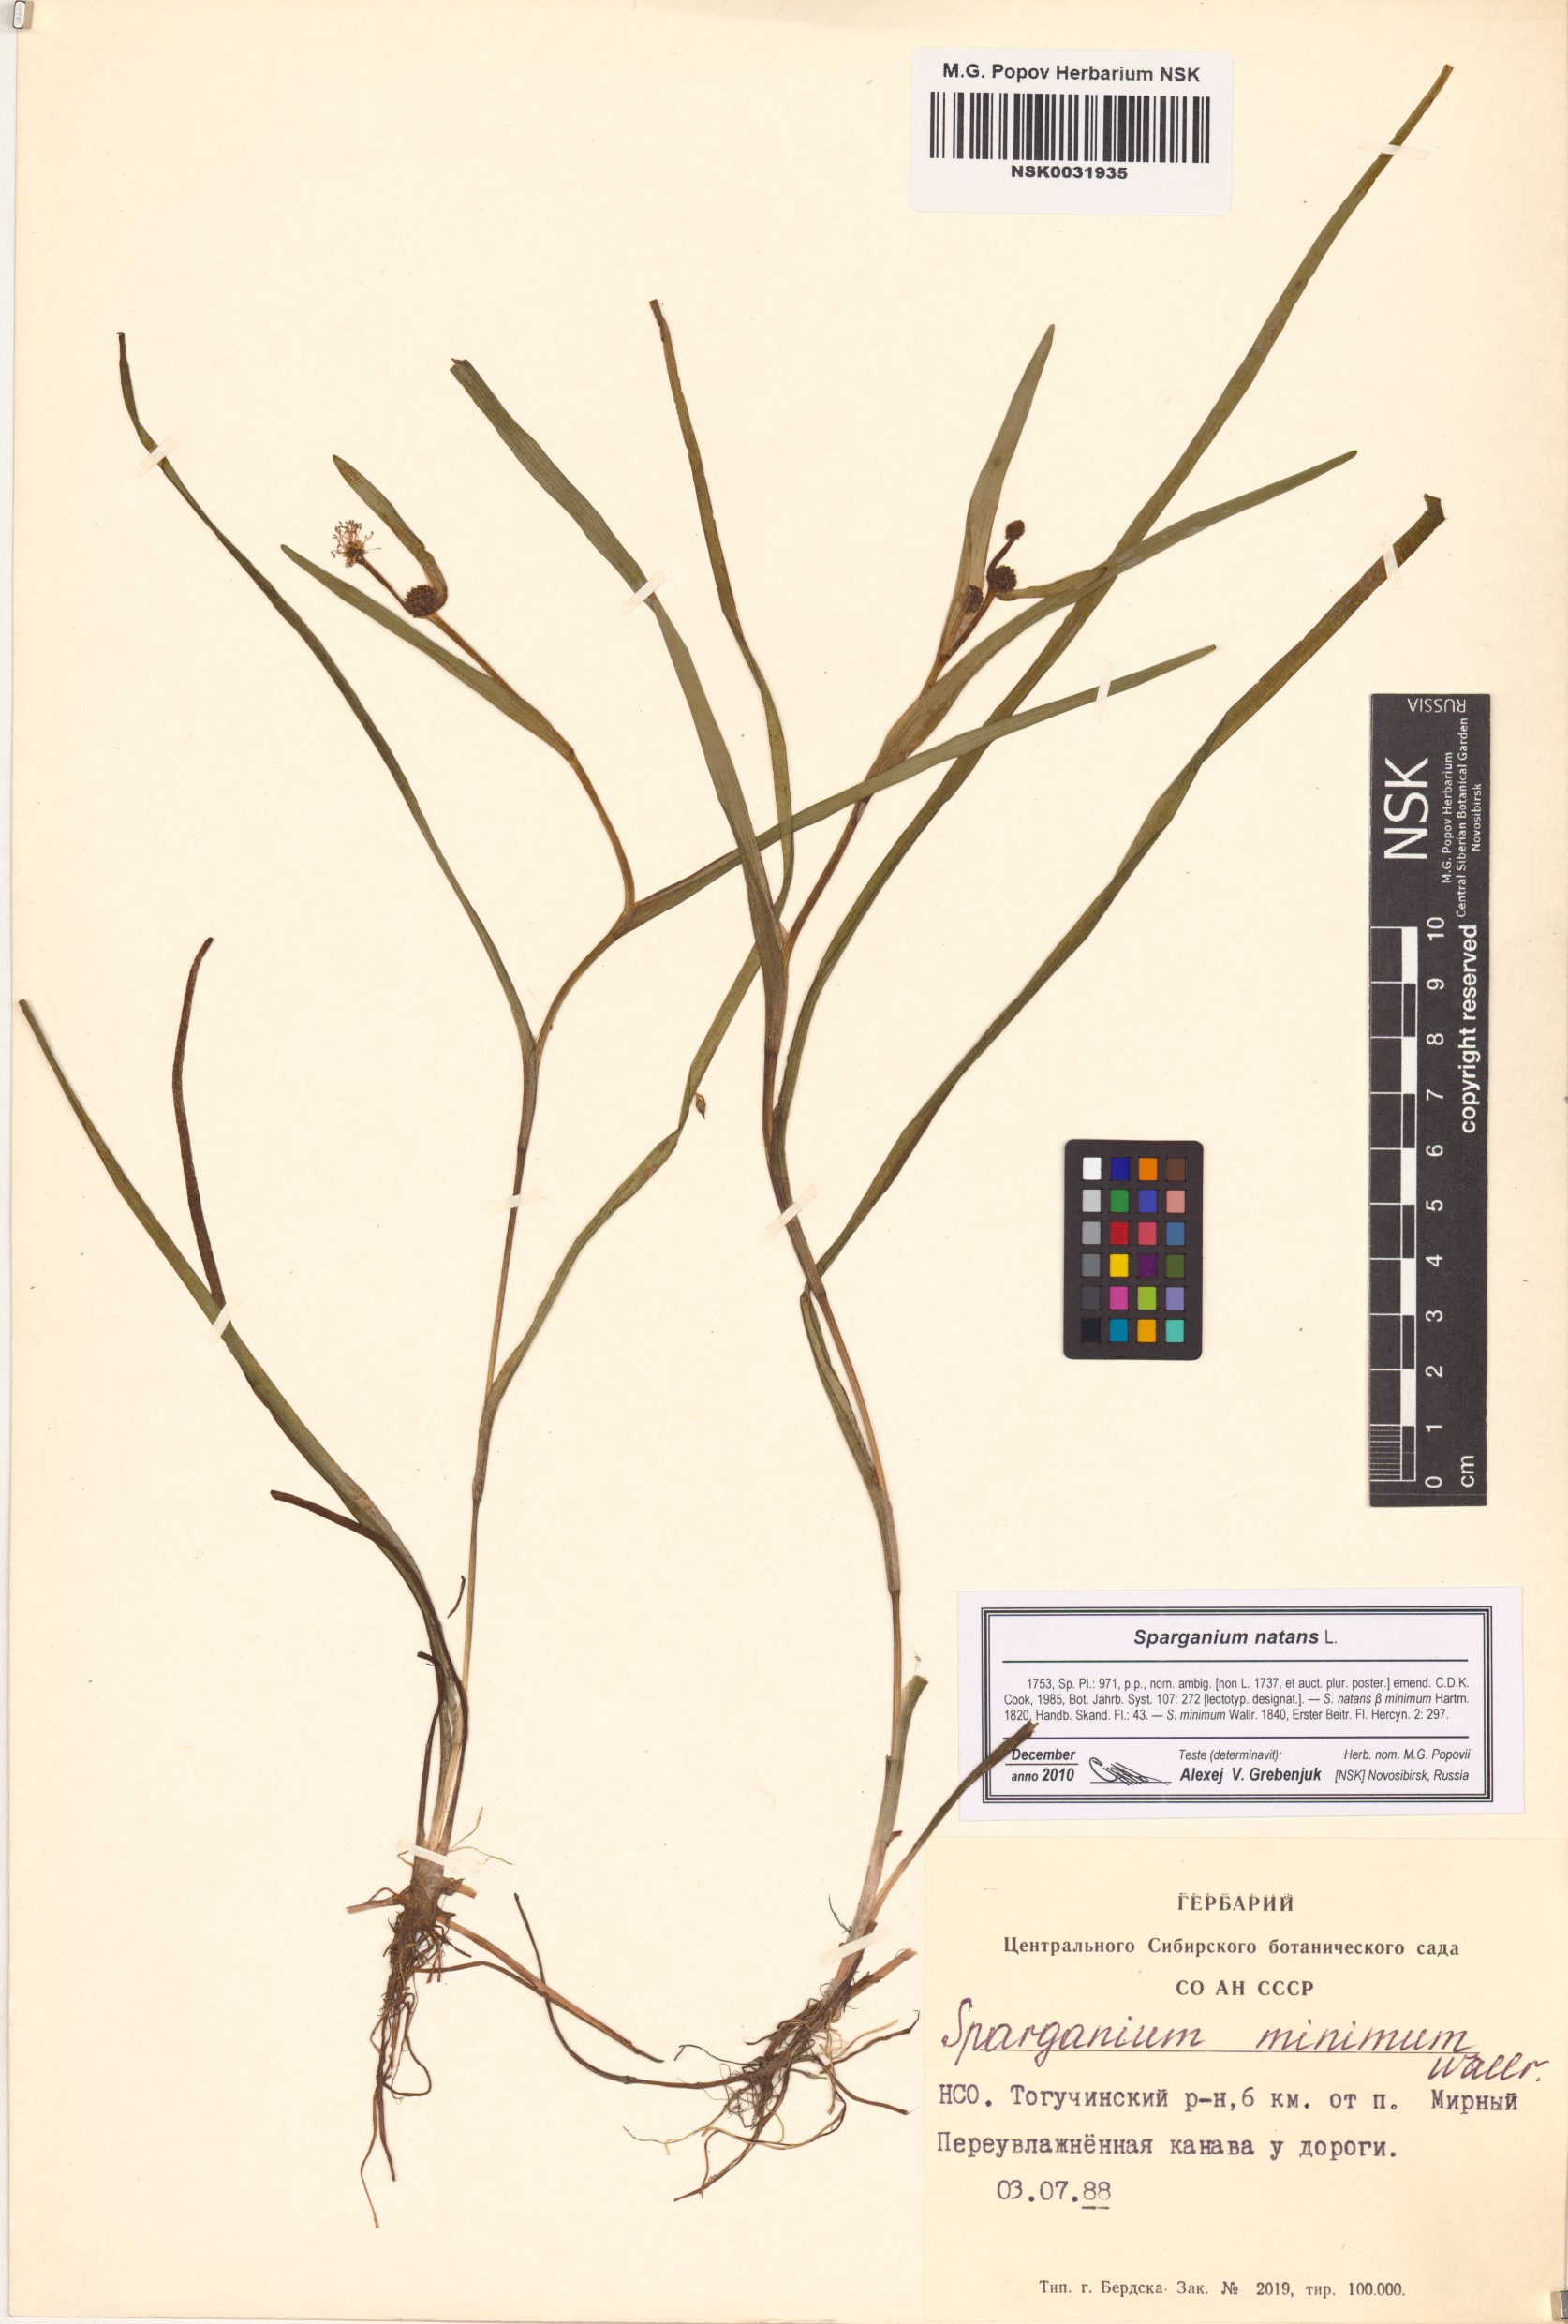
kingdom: Plantae
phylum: Tracheophyta
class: Liliopsida
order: Poales
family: Typhaceae
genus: Sparganium
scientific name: Sparganium natans
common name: Least bur-reed
